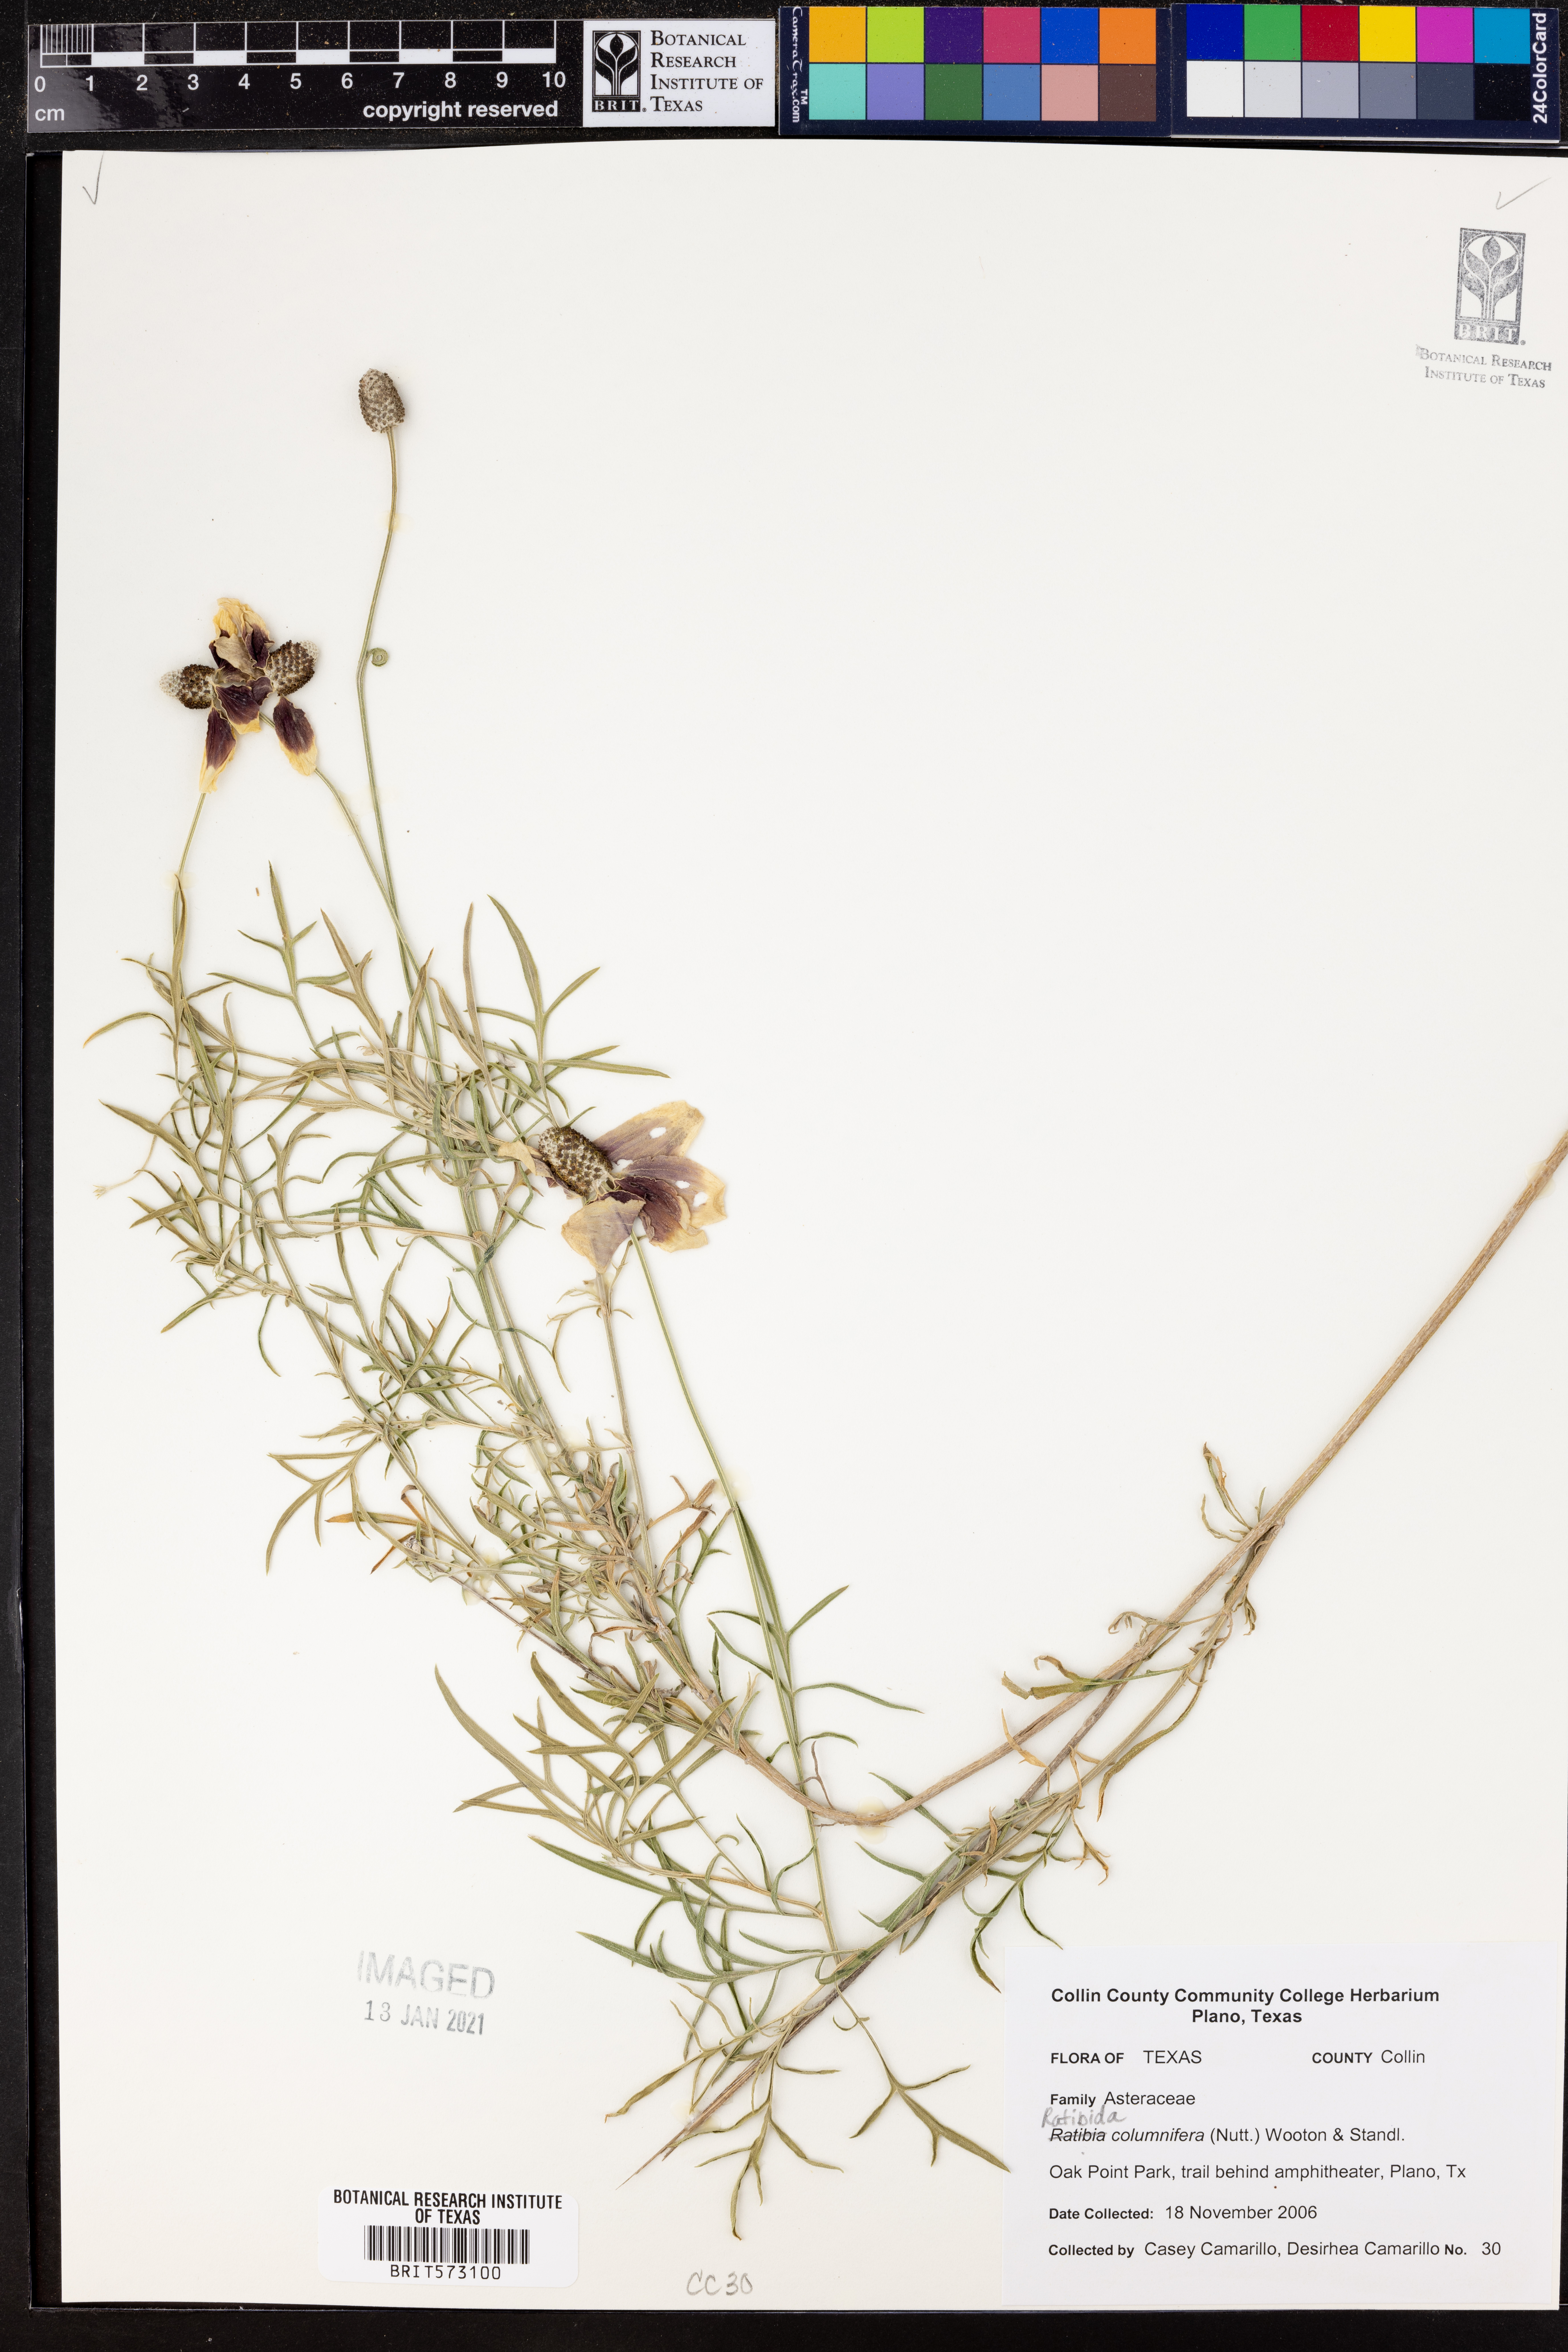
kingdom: Plantae
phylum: Tracheophyta
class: Magnoliopsida
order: Asterales
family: Asteraceae
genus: Ratibida
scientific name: Ratibida columnifera
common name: Prairie coneflower
